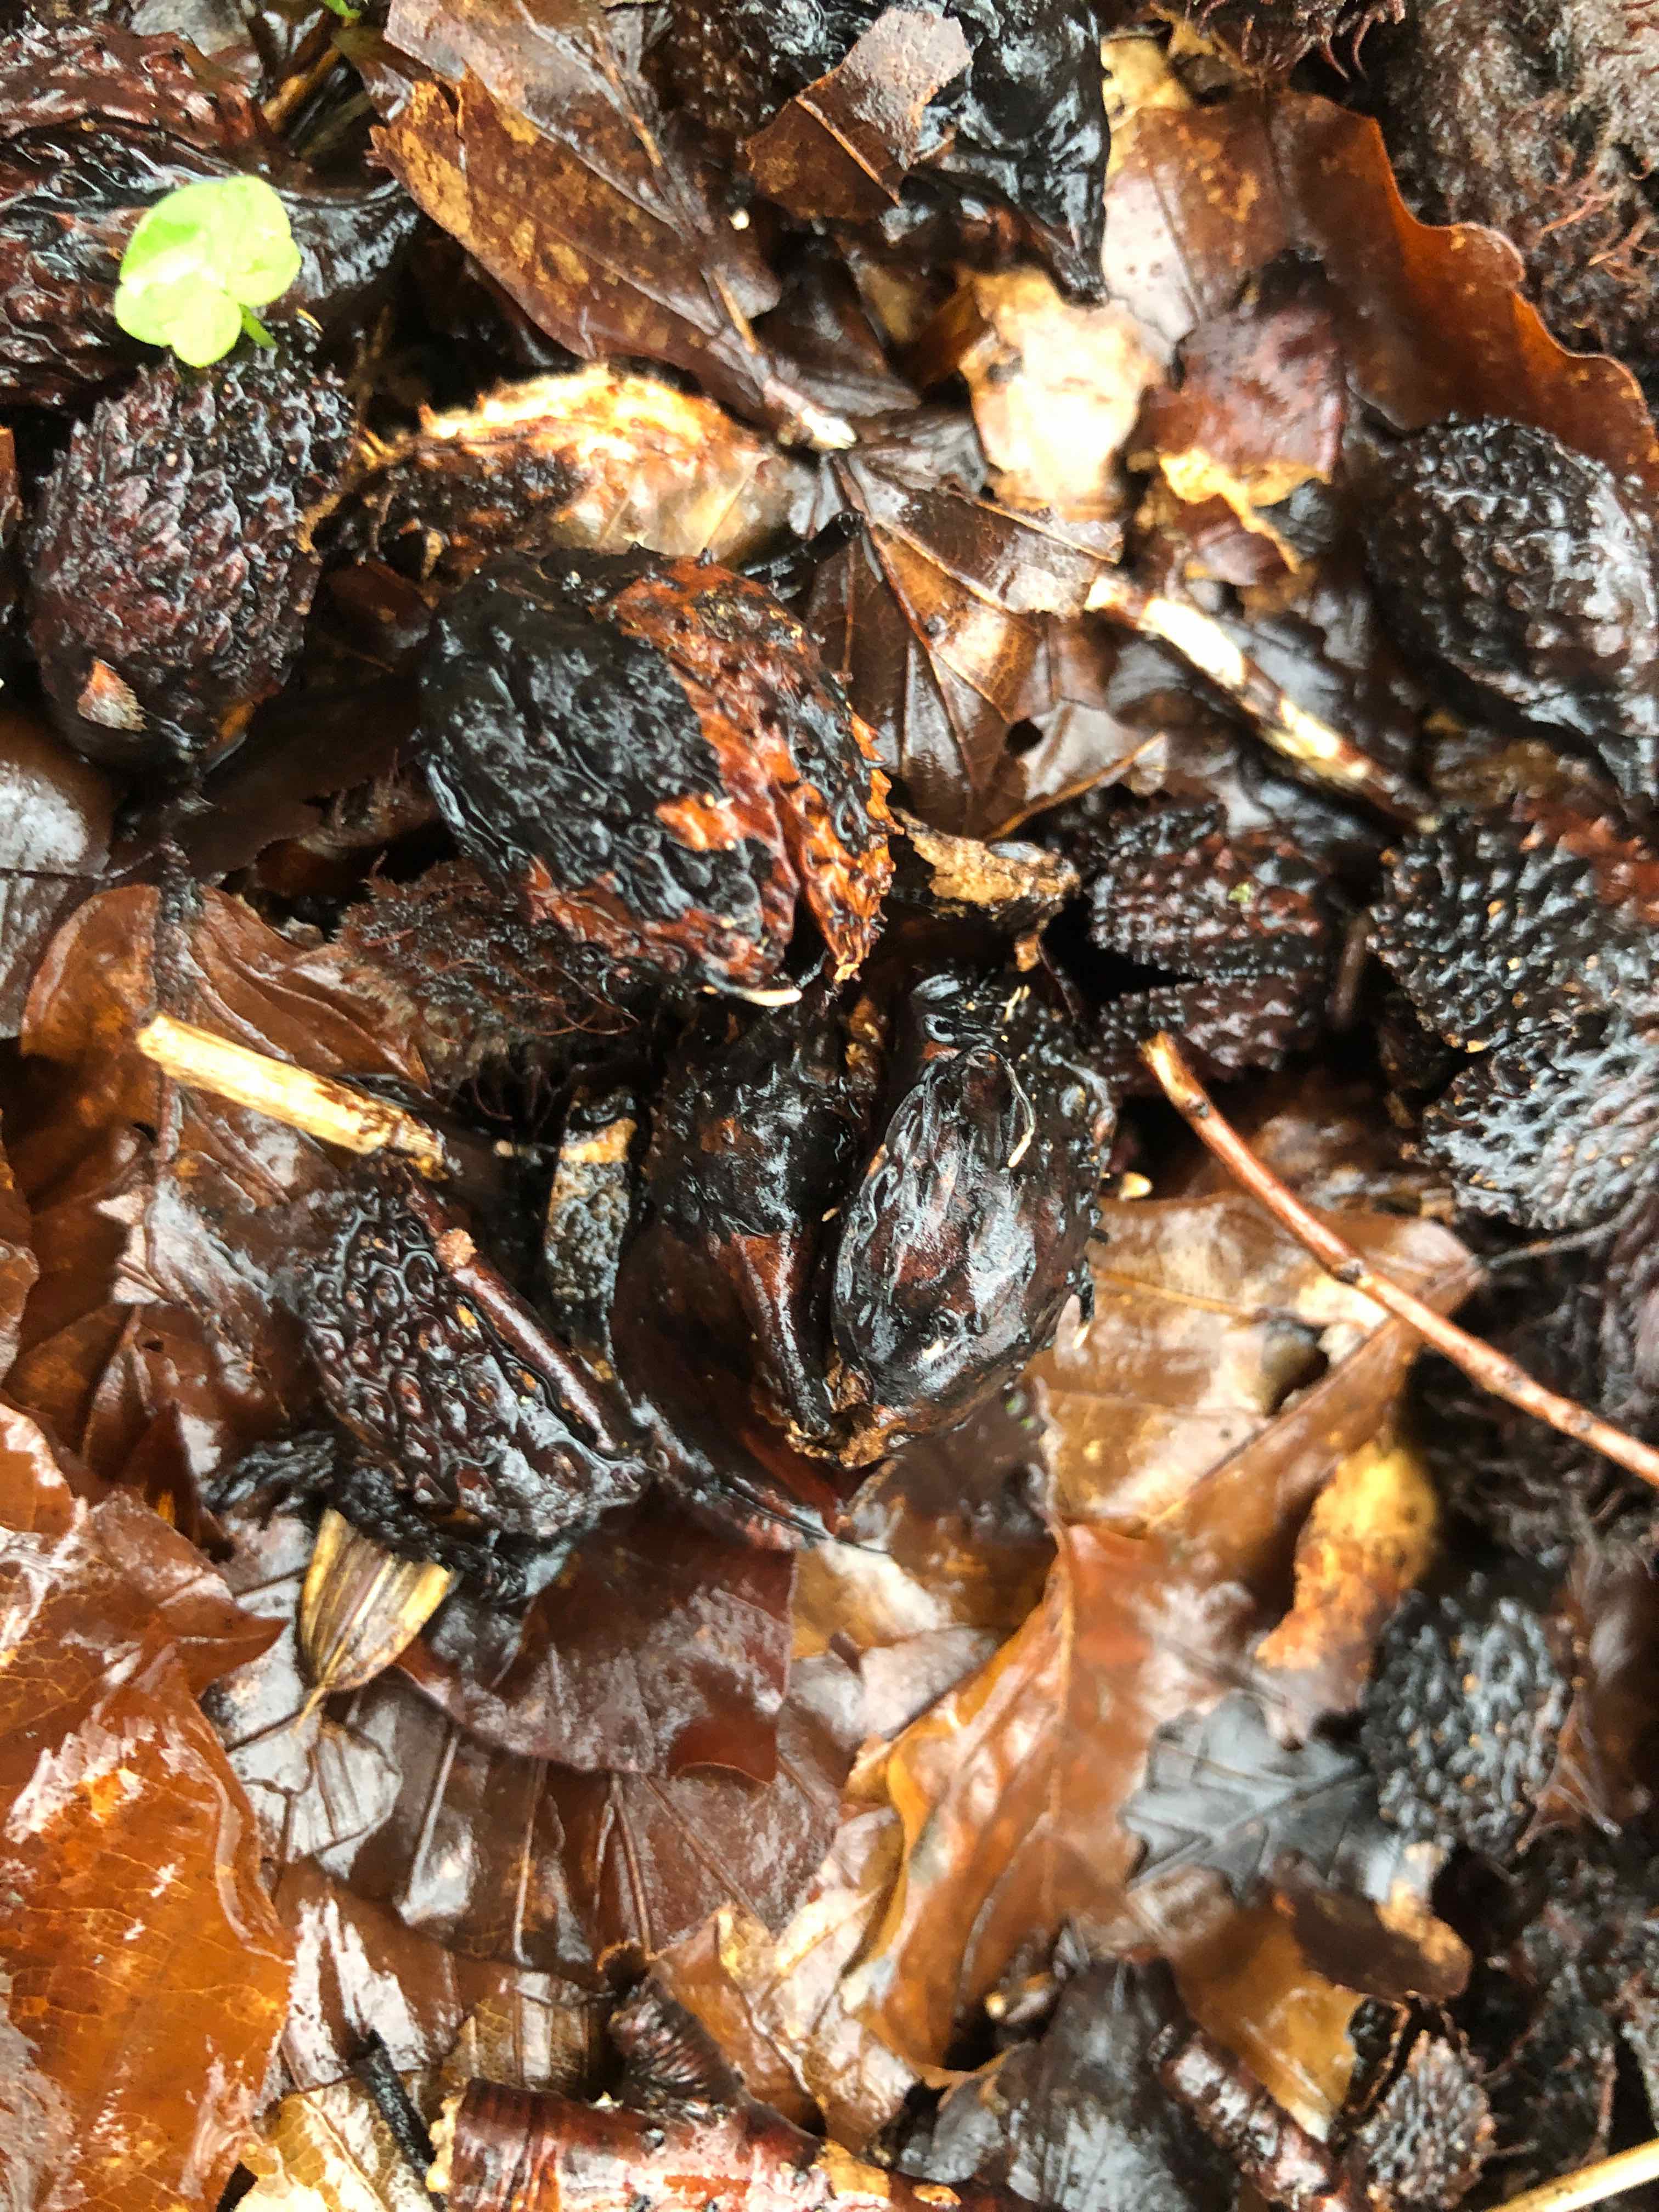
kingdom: Fungi
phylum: Ascomycota
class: Sordariomycetes
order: Xylariales
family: Xylariaceae
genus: Xylaria
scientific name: Xylaria carpophila
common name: bogskål-stødsvamp
